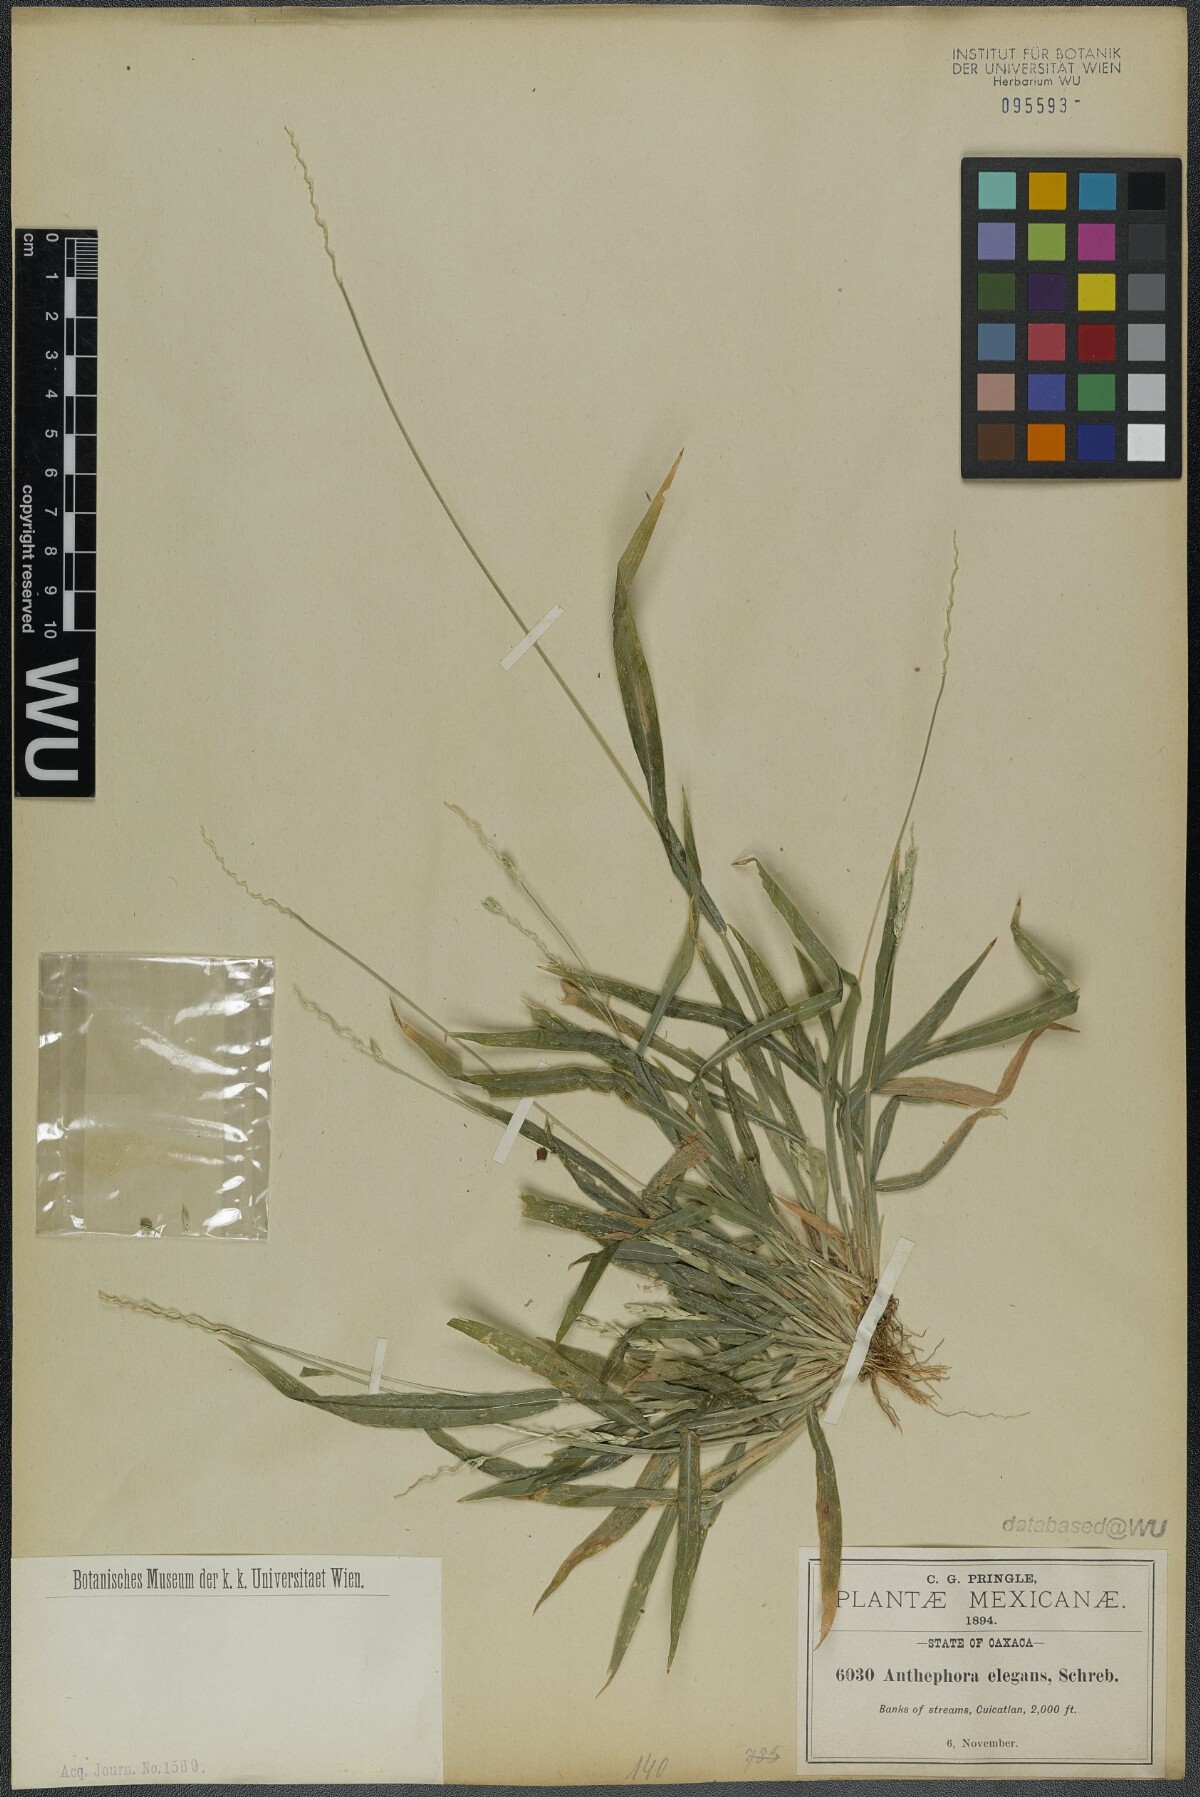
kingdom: Plantae
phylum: Tracheophyta
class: Liliopsida
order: Poales
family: Poaceae
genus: Anthephora
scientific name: Anthephora hermaphrodita
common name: Oldfield grass
